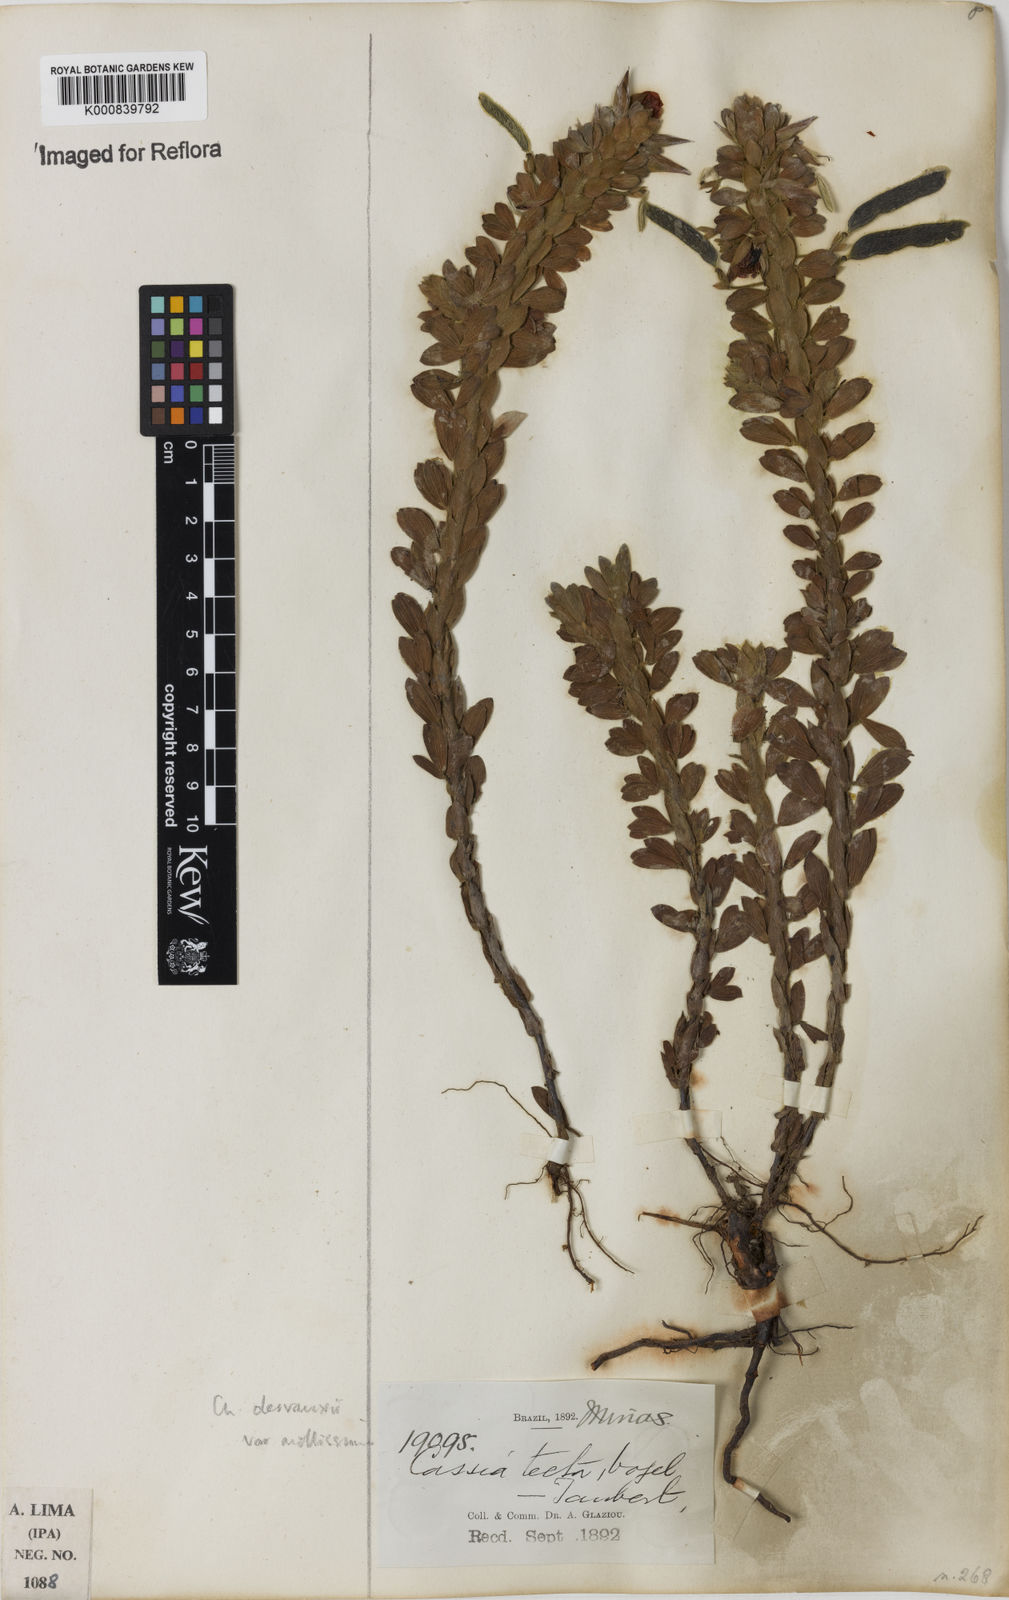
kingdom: Plantae
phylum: Tracheophyta
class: Magnoliopsida
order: Fabales
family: Fabaceae
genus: Chamaecrista
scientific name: Chamaecrista desvauxii
